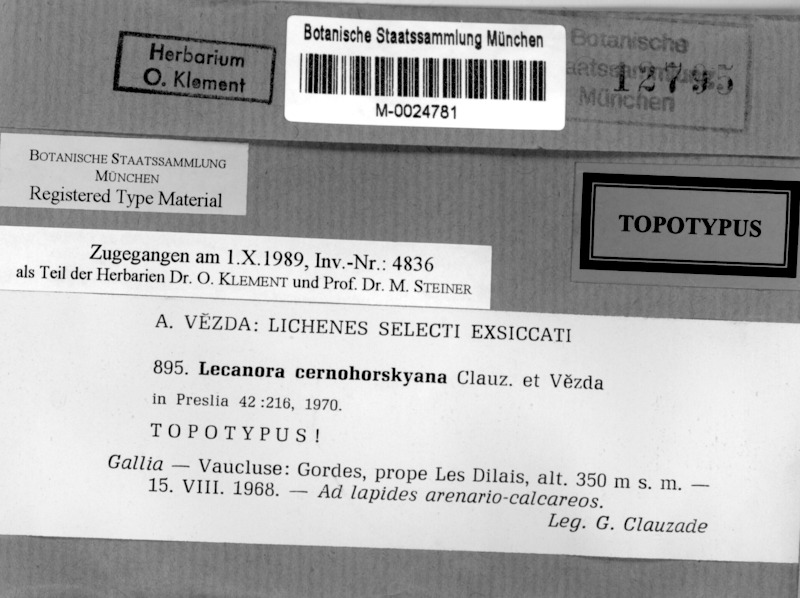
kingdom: Fungi
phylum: Ascomycota
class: Lecanoromycetes
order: Hymeneliales
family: Hymeneliaceae
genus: Aspicilia
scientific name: Aspicilia cernohorskyana
